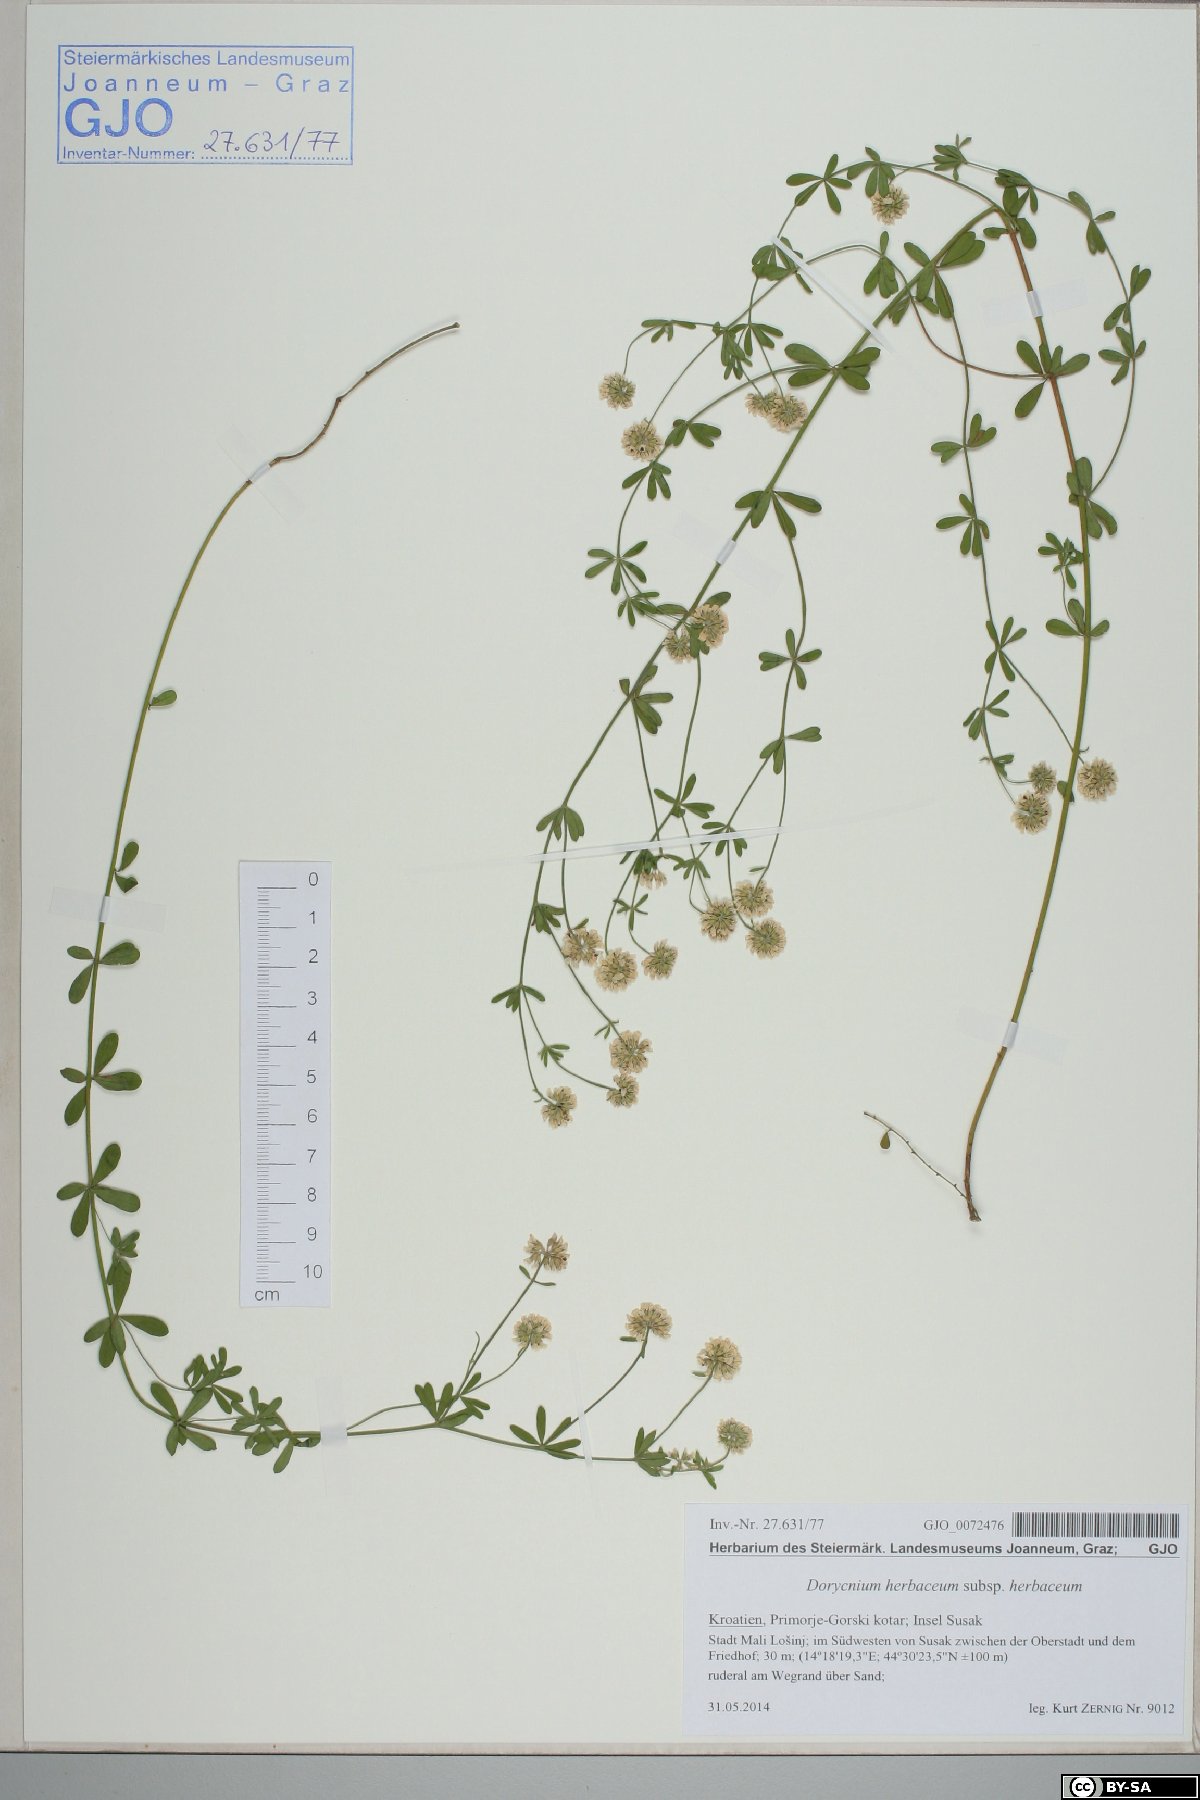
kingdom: Plantae
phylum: Tracheophyta
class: Magnoliopsida
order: Fabales
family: Fabaceae
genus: Lotus
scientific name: Lotus herbaceus
